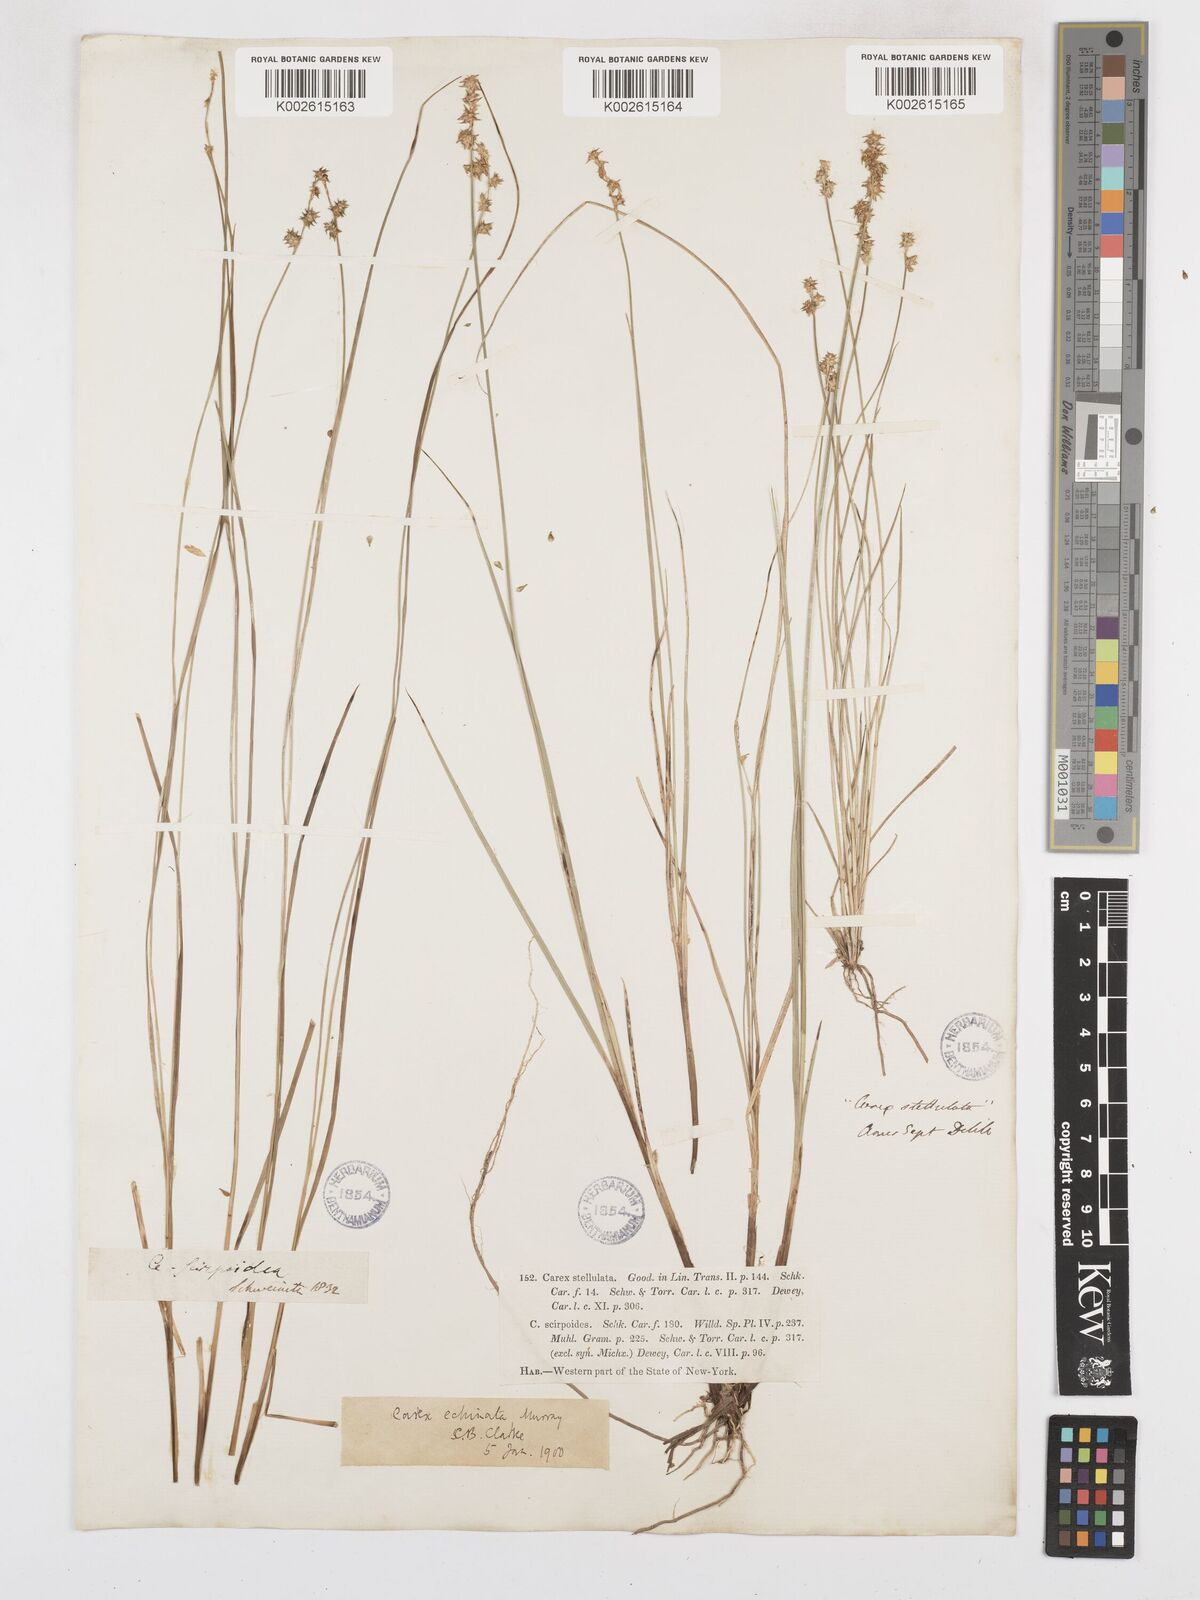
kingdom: Plantae
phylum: Tracheophyta
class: Liliopsida
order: Poales
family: Cyperaceae
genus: Carex
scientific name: Carex echinata
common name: Star sedge
